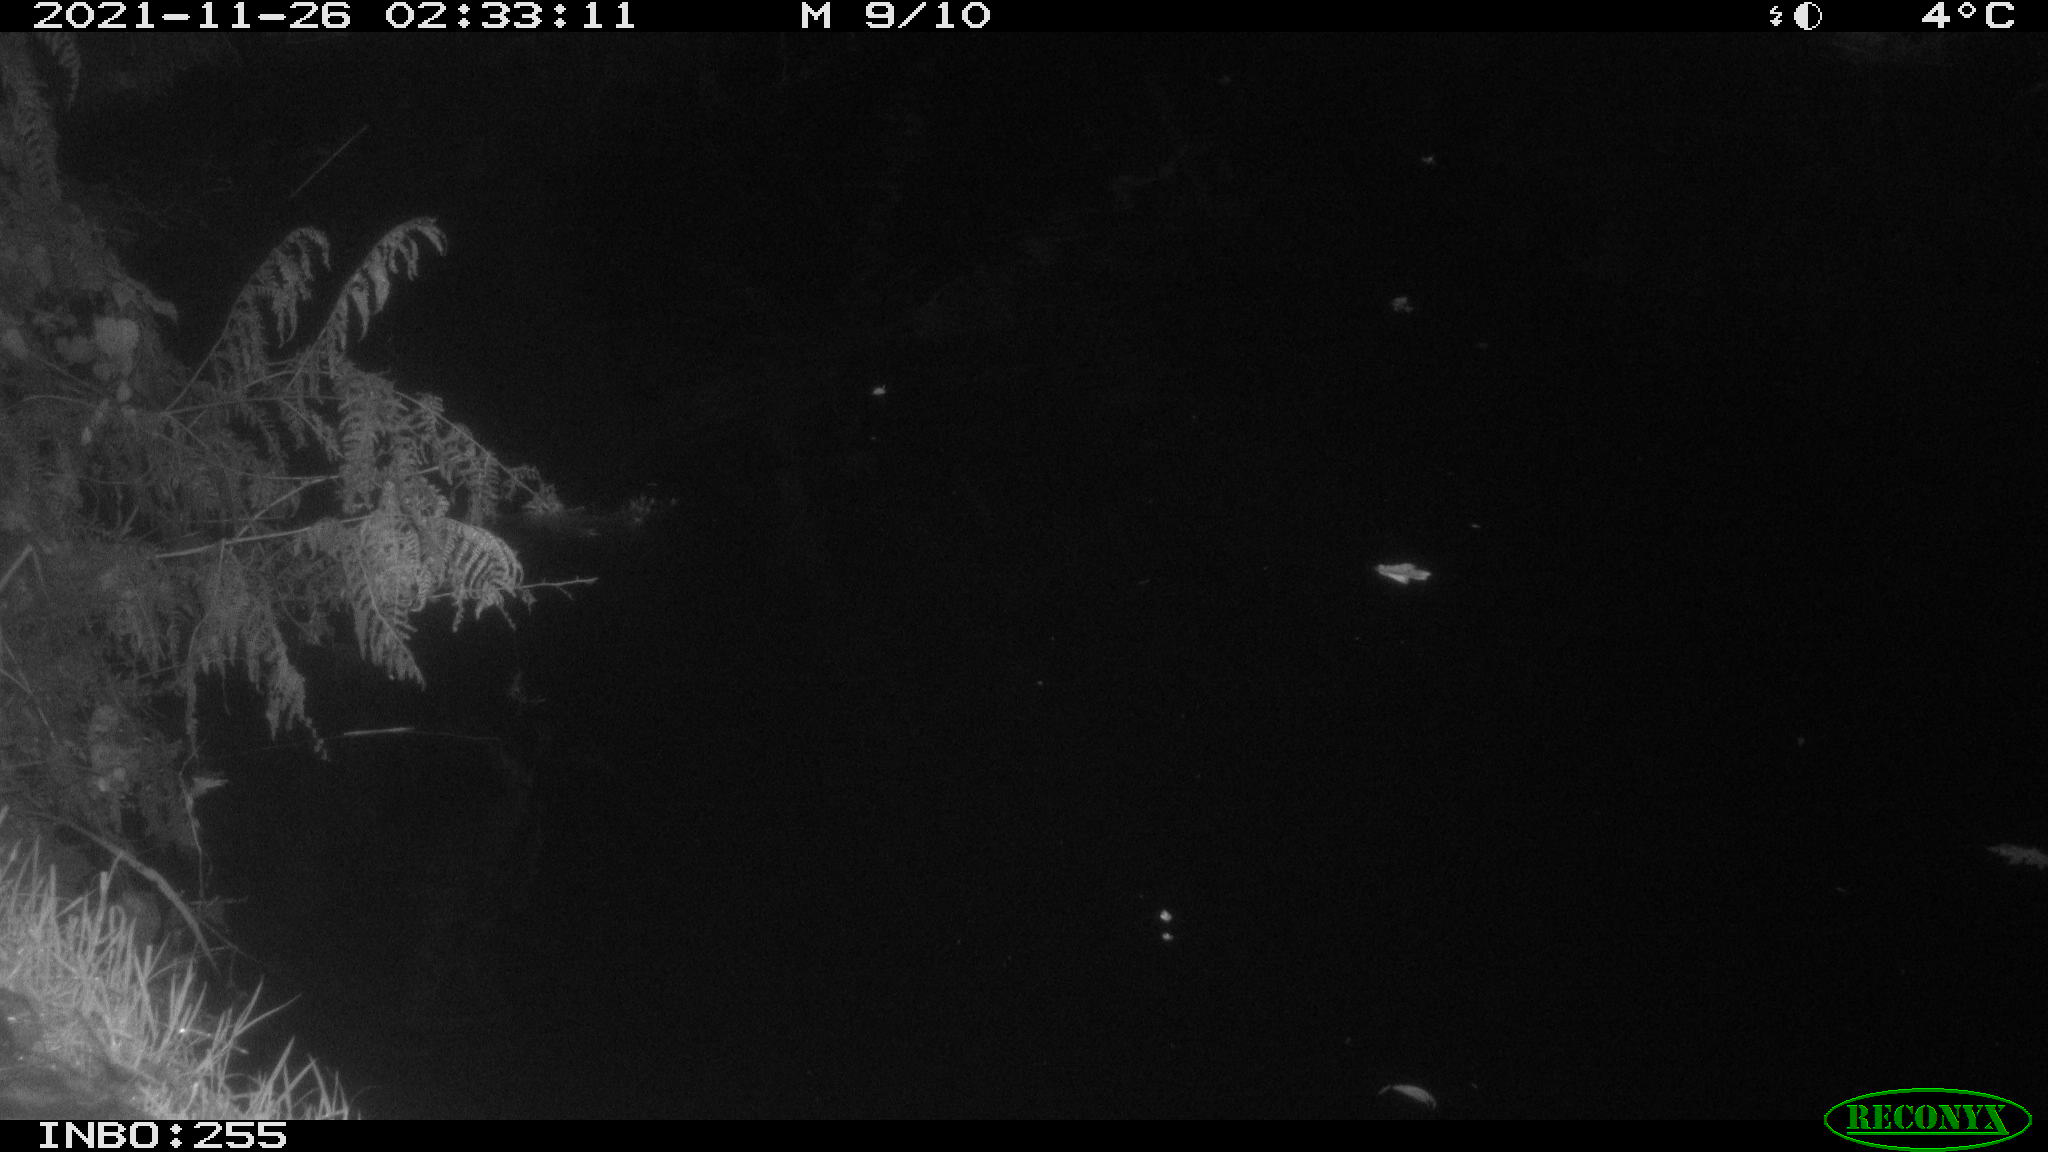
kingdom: Animalia
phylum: Chordata
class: Mammalia
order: Rodentia
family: Muridae
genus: Rattus
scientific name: Rattus norvegicus
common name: Brown rat
